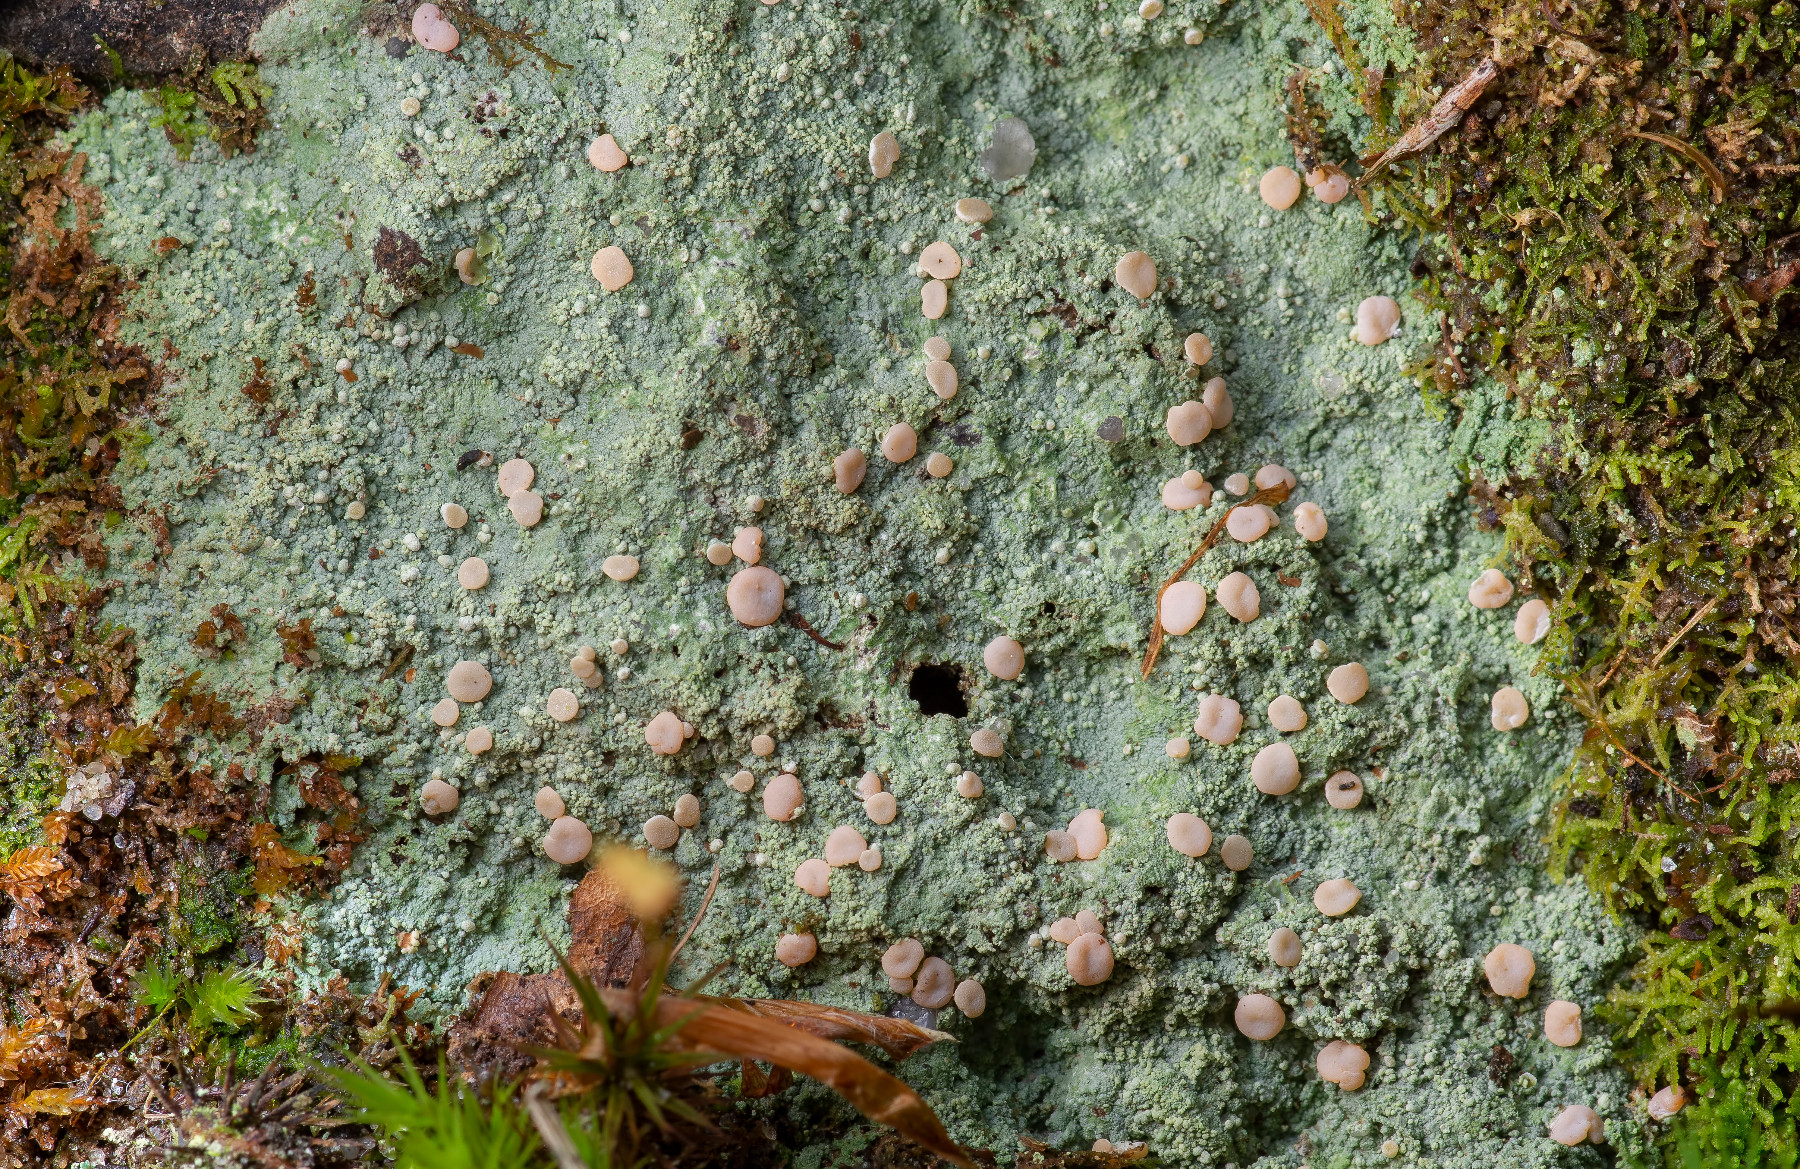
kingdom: Fungi
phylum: Ascomycota
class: Lecanoromycetes
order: Pertusariales
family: Icmadophilaceae
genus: Icmadophila
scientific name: Icmadophila ericetorum
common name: blegrød tørvelav
